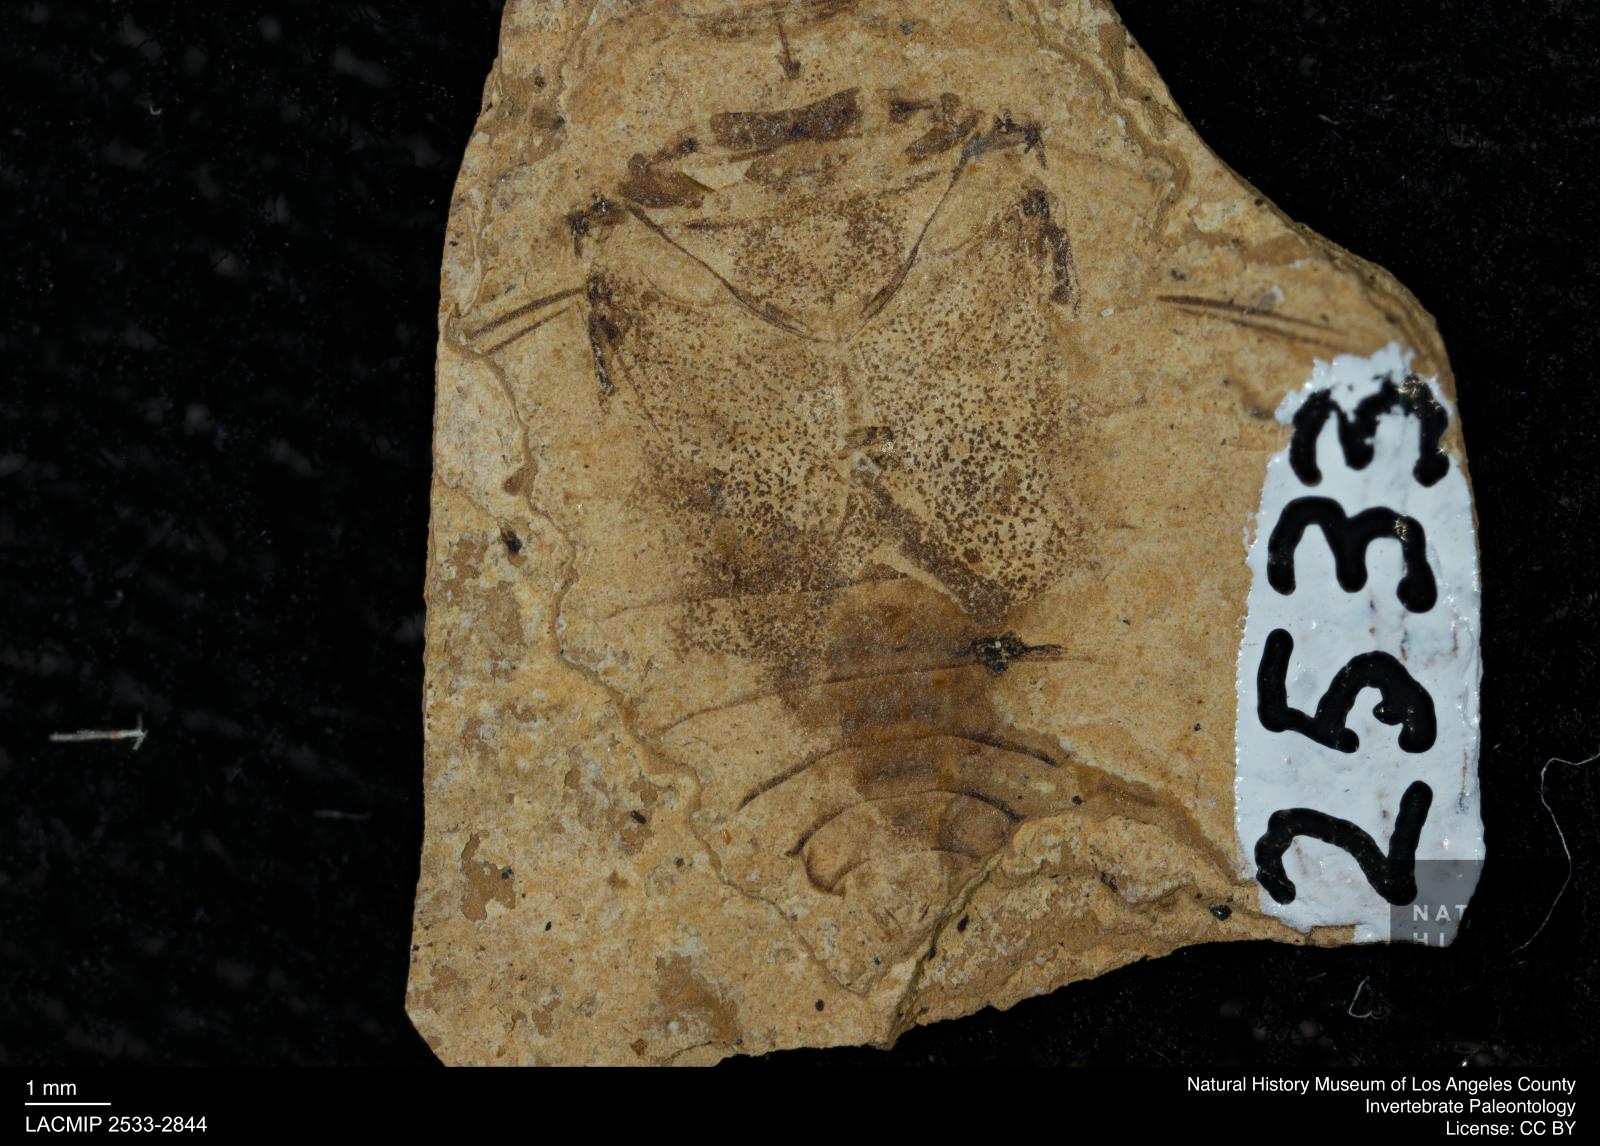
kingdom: Animalia
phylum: Arthropoda
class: Insecta
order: Hemiptera
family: Naucoridae
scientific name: Naucoridae
